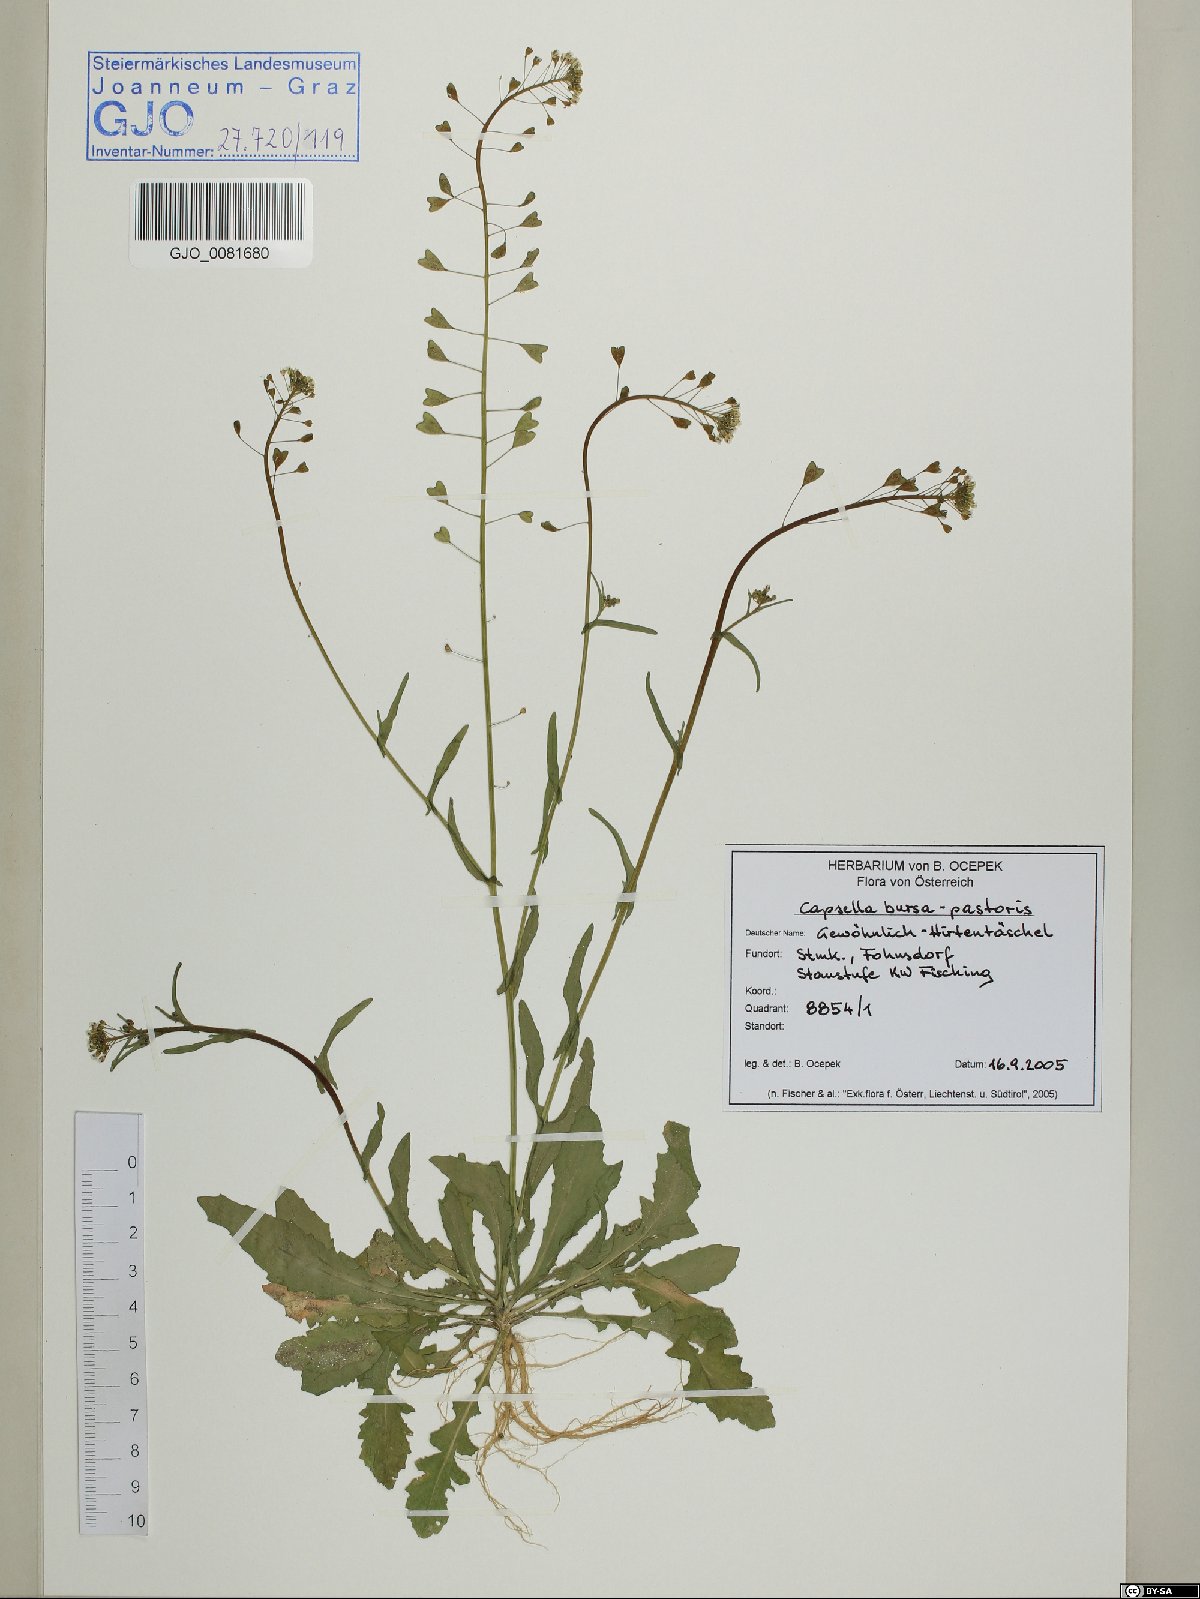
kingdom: Plantae
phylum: Tracheophyta
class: Magnoliopsida
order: Brassicales
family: Brassicaceae
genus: Capsella
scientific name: Capsella bursa-pastoris
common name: Shepherd's purse
